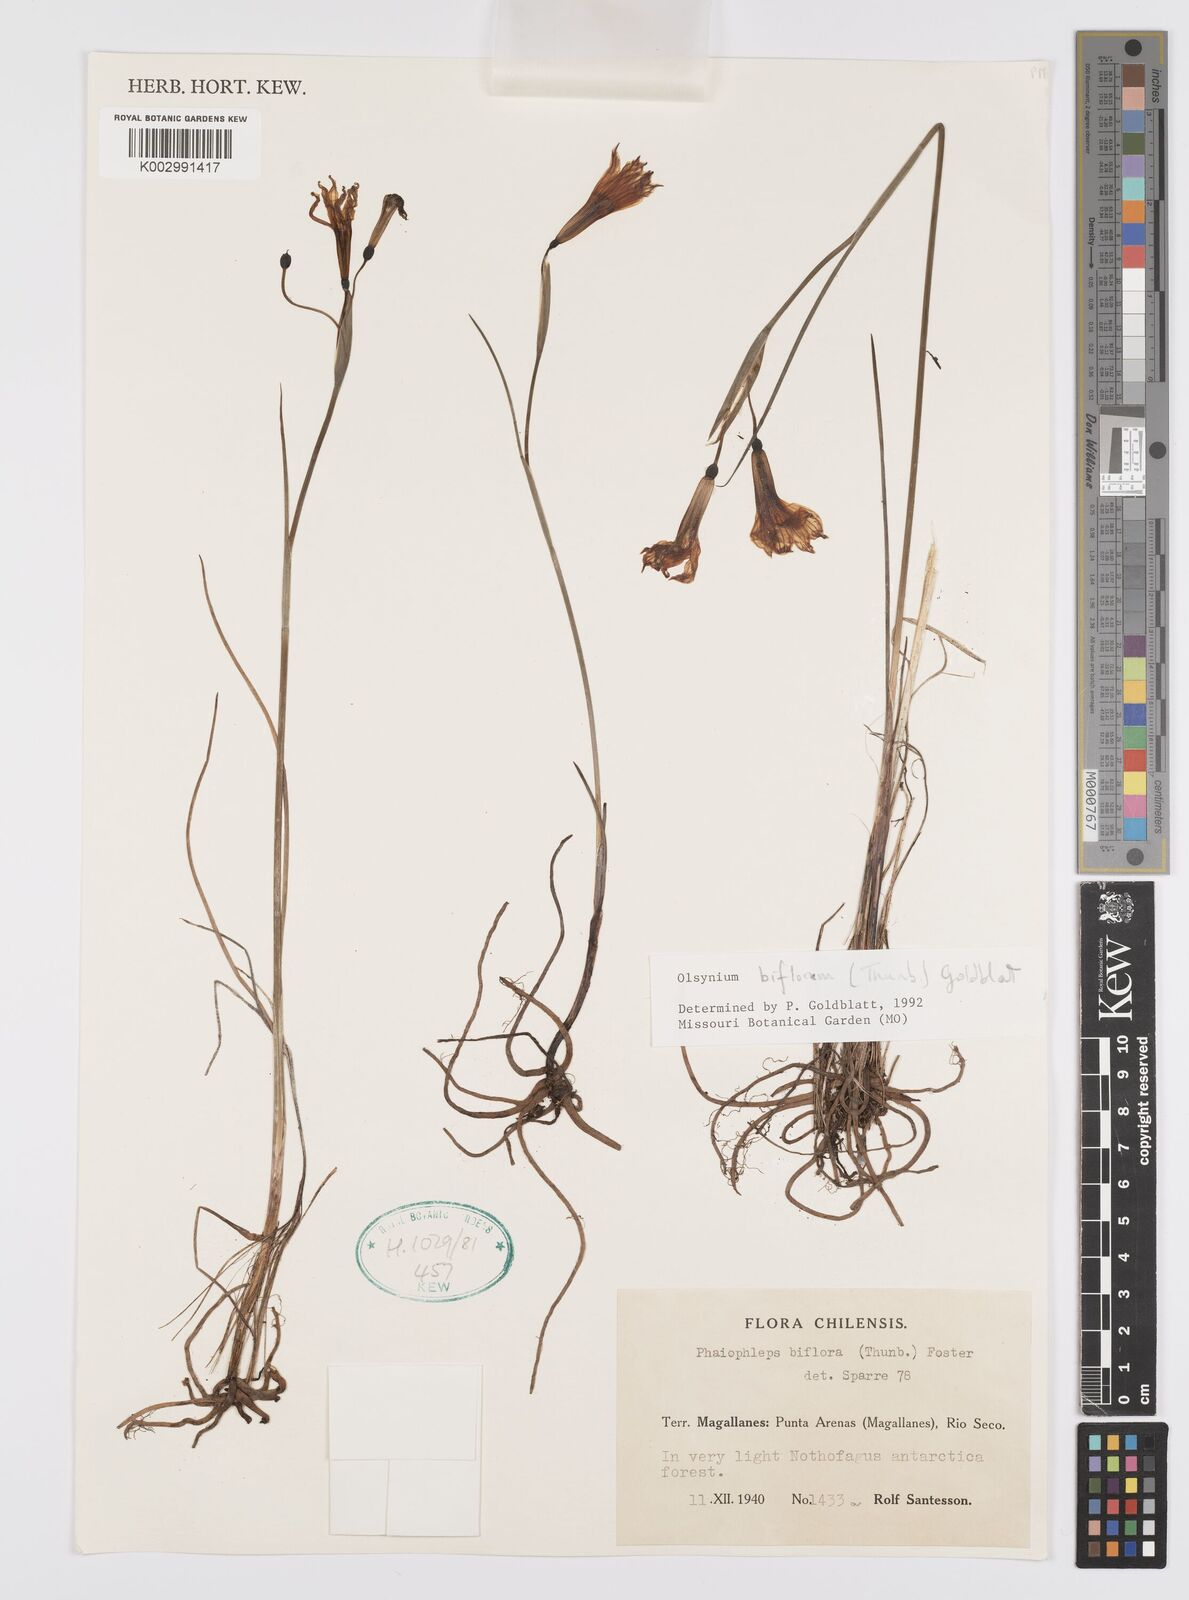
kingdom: Plantae
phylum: Tracheophyta
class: Liliopsida
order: Asparagales
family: Iridaceae
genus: Olsynium
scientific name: Olsynium biflorum
